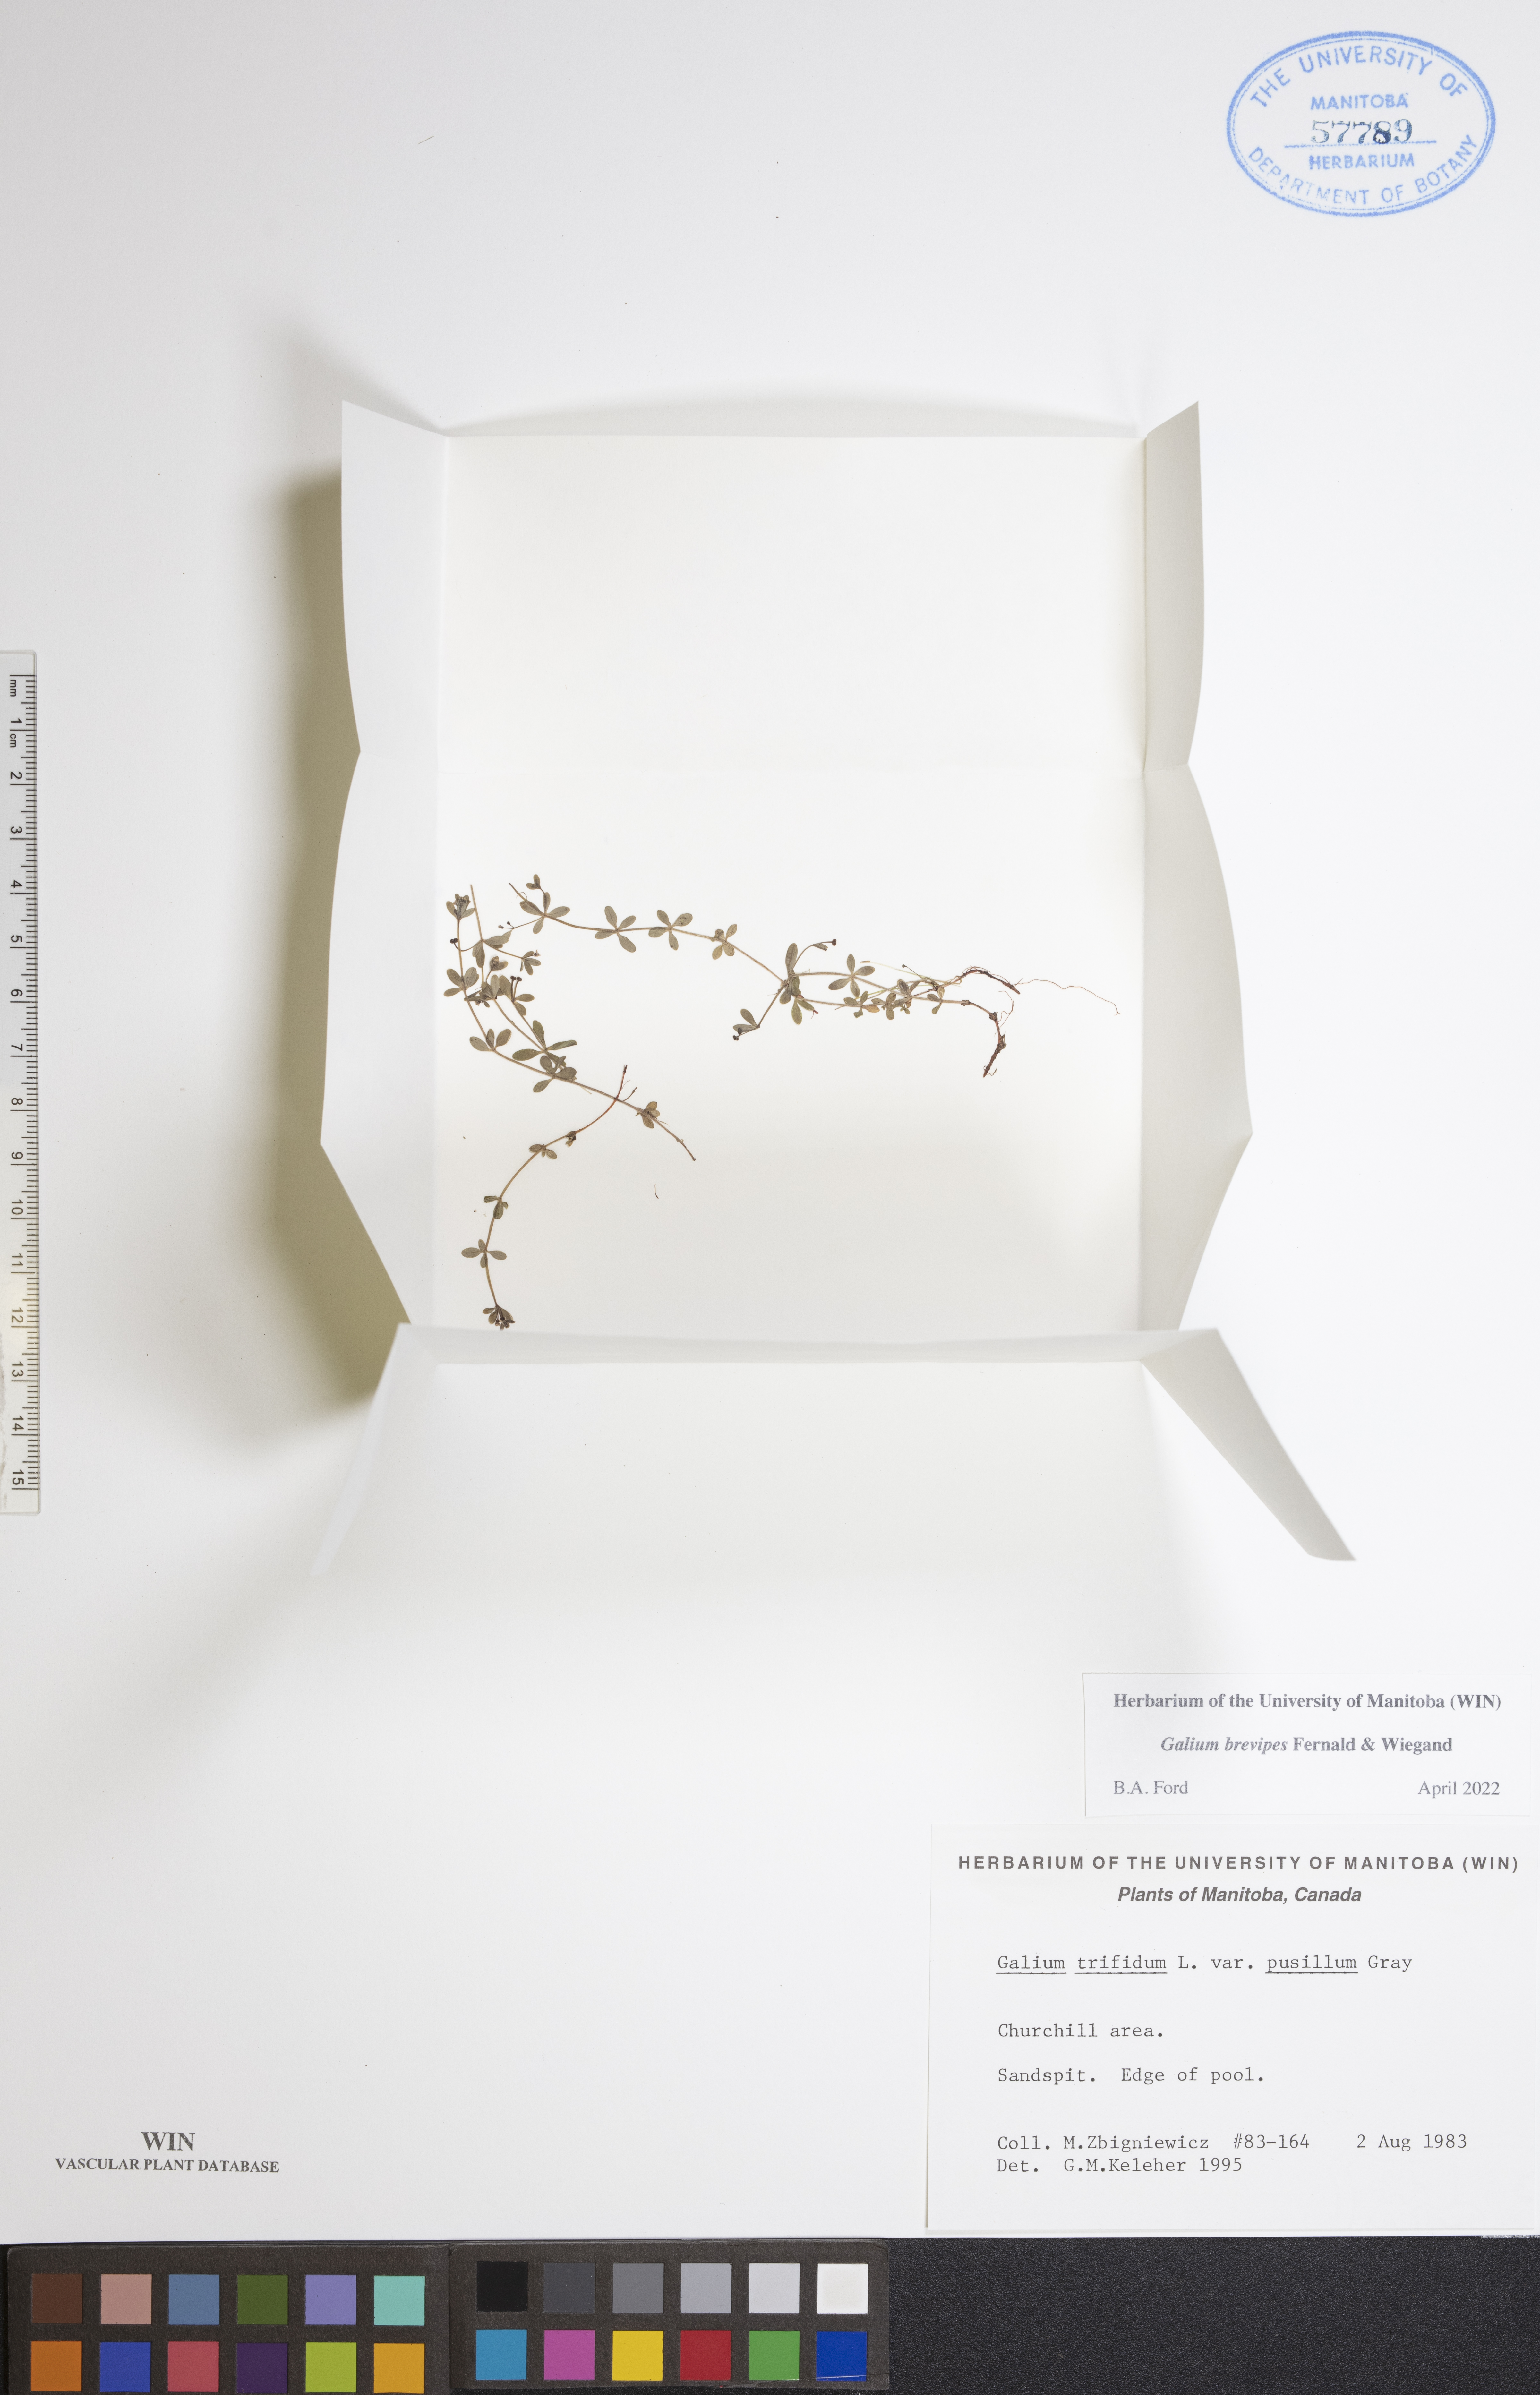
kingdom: Plantae
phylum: Tracheophyta
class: Magnoliopsida
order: Gentianales
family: Rubiaceae
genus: Galium
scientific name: Galium domingense
